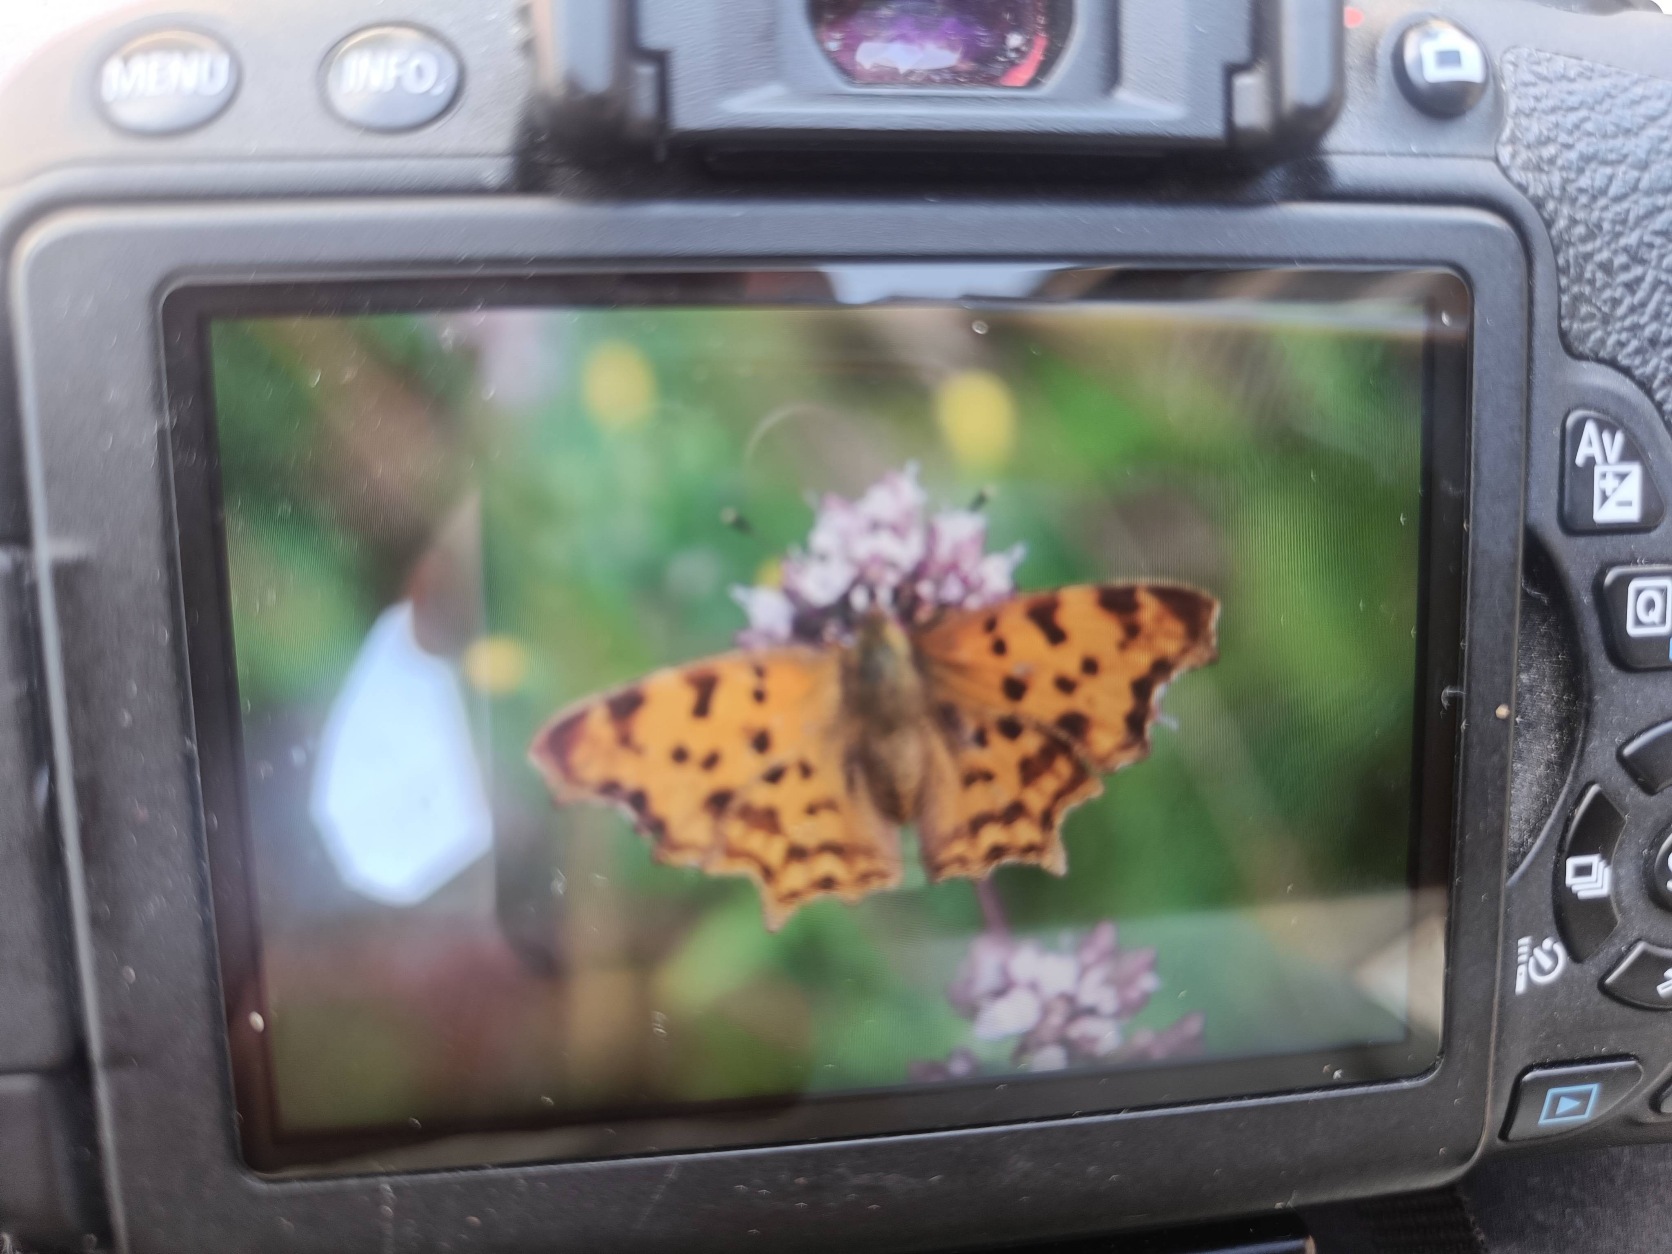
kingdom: Animalia
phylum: Arthropoda
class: Insecta
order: Lepidoptera
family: Nymphalidae
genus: Polygonia
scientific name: Polygonia c-album
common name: Det hvide C
